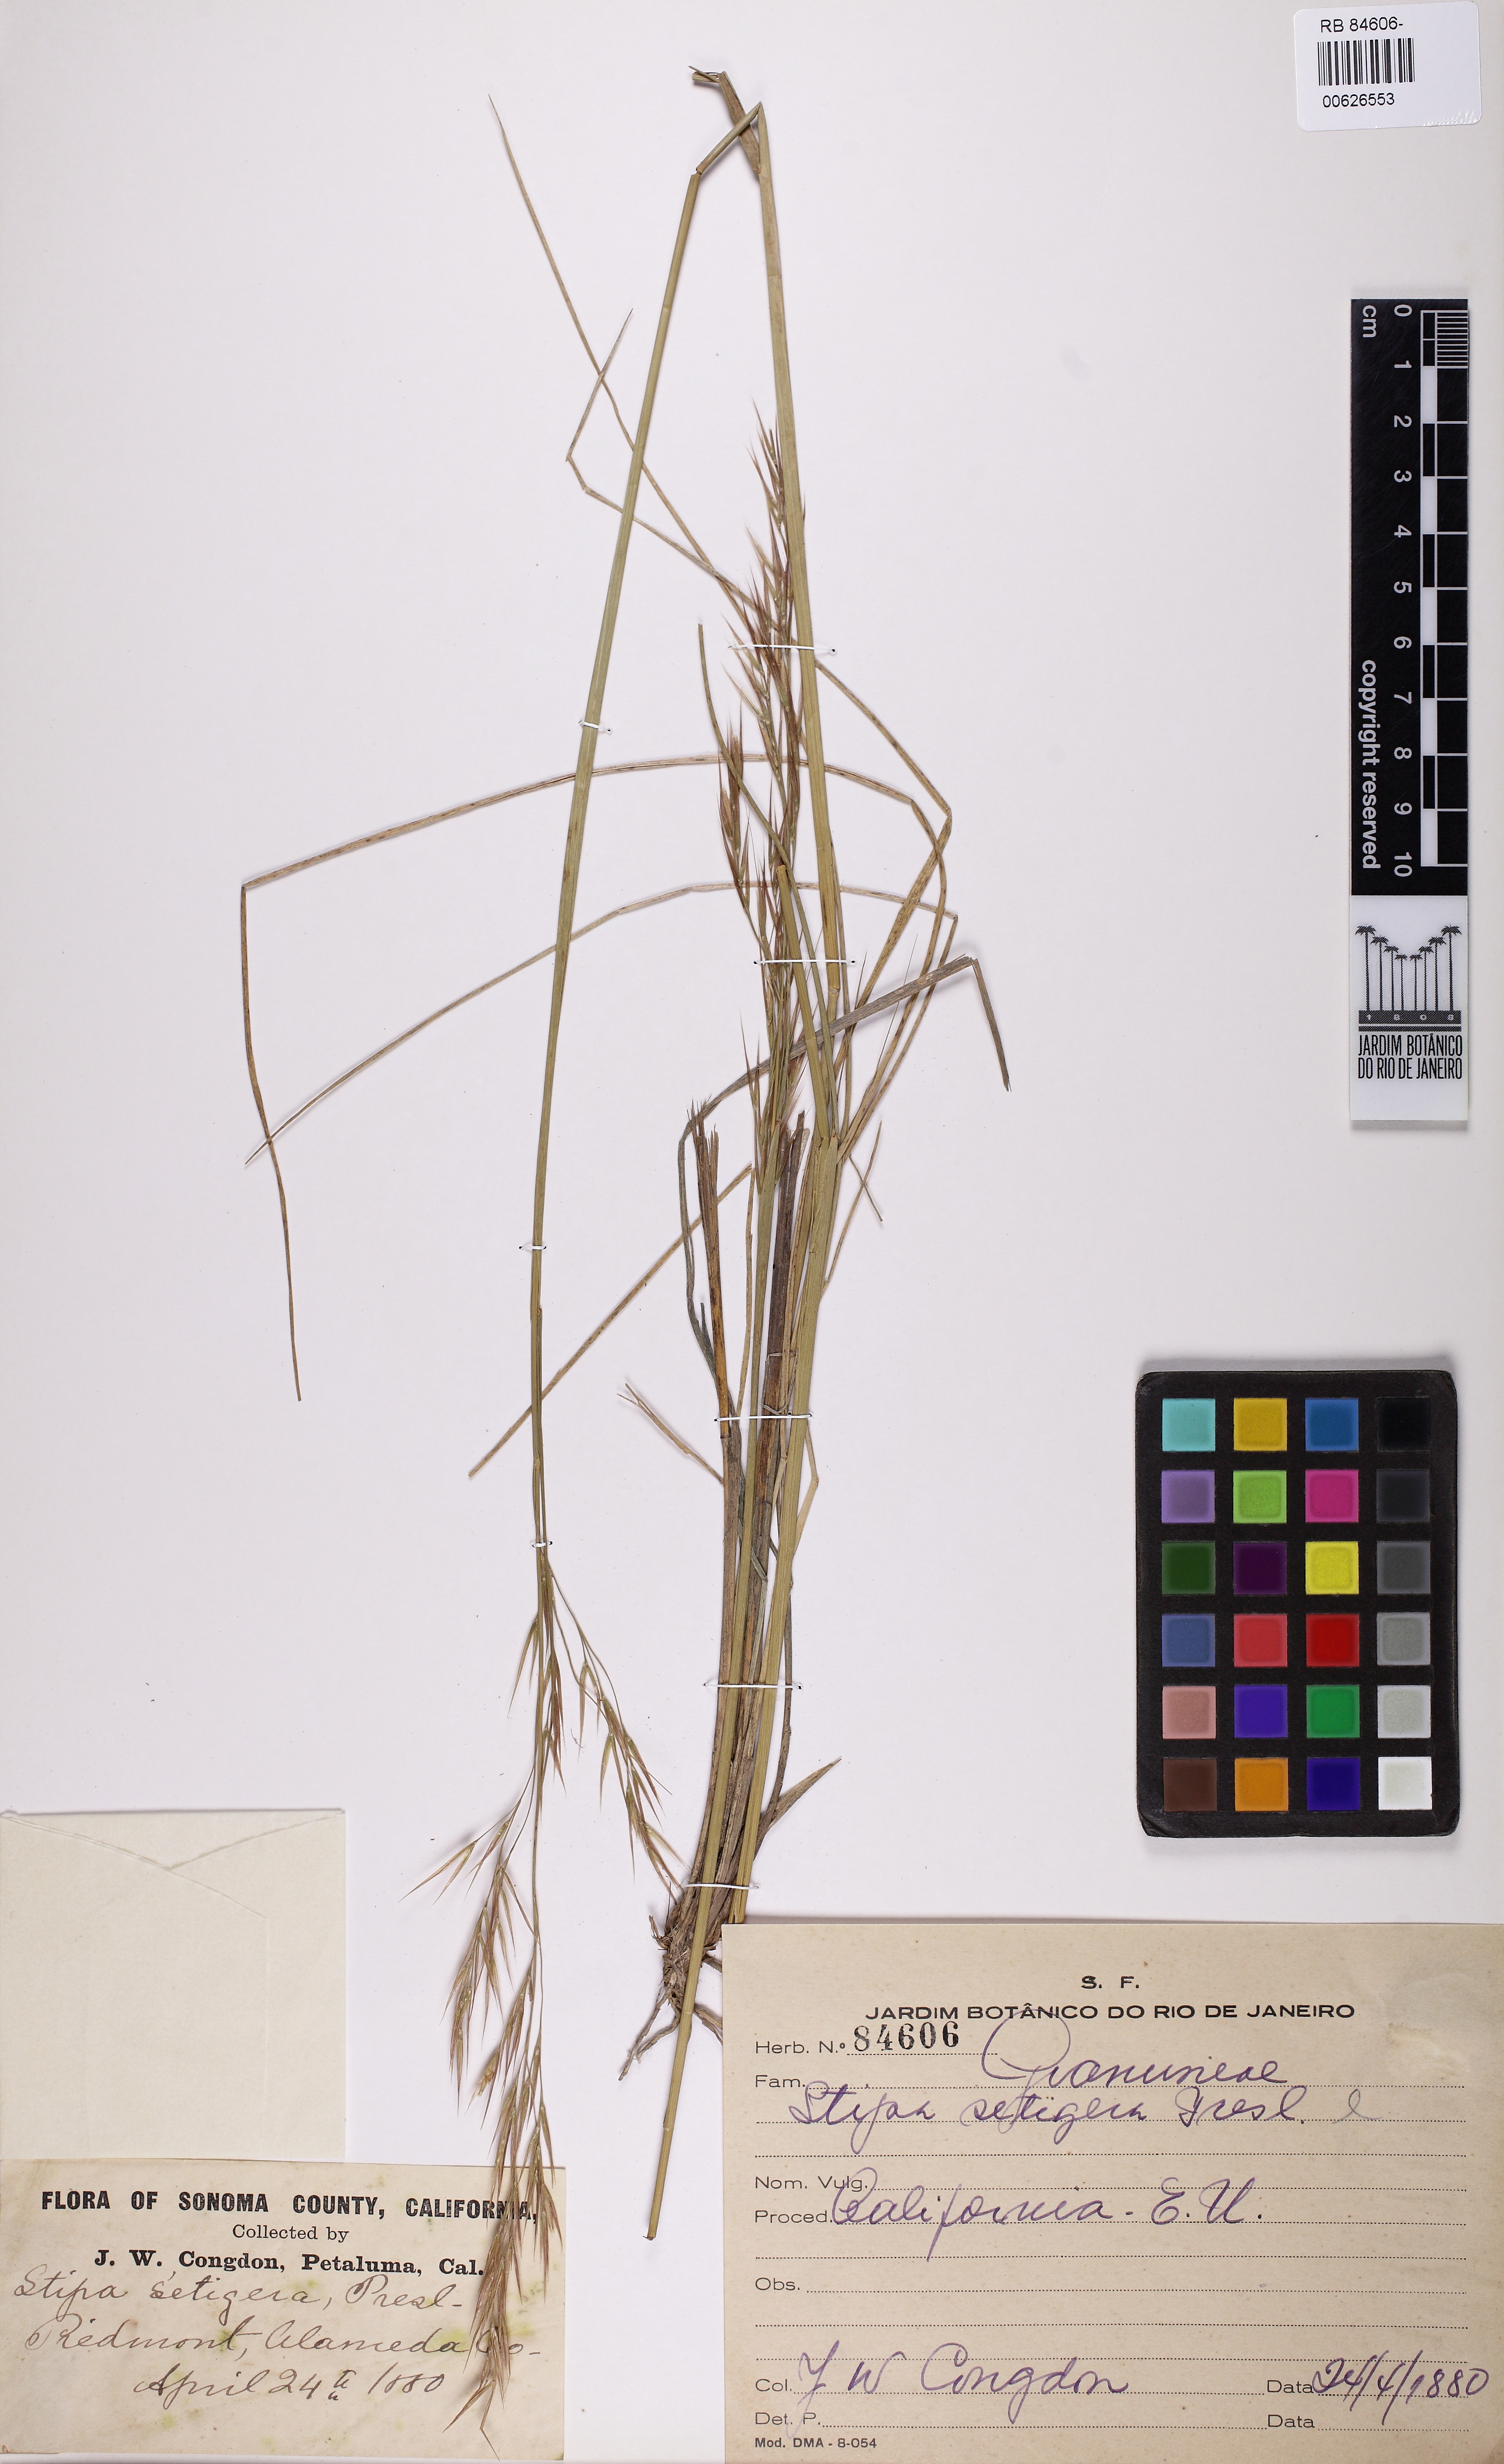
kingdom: Plantae
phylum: Tracheophyta
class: Liliopsida
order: Poales
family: Poaceae
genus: Nassella
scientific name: Nassella mucronata
